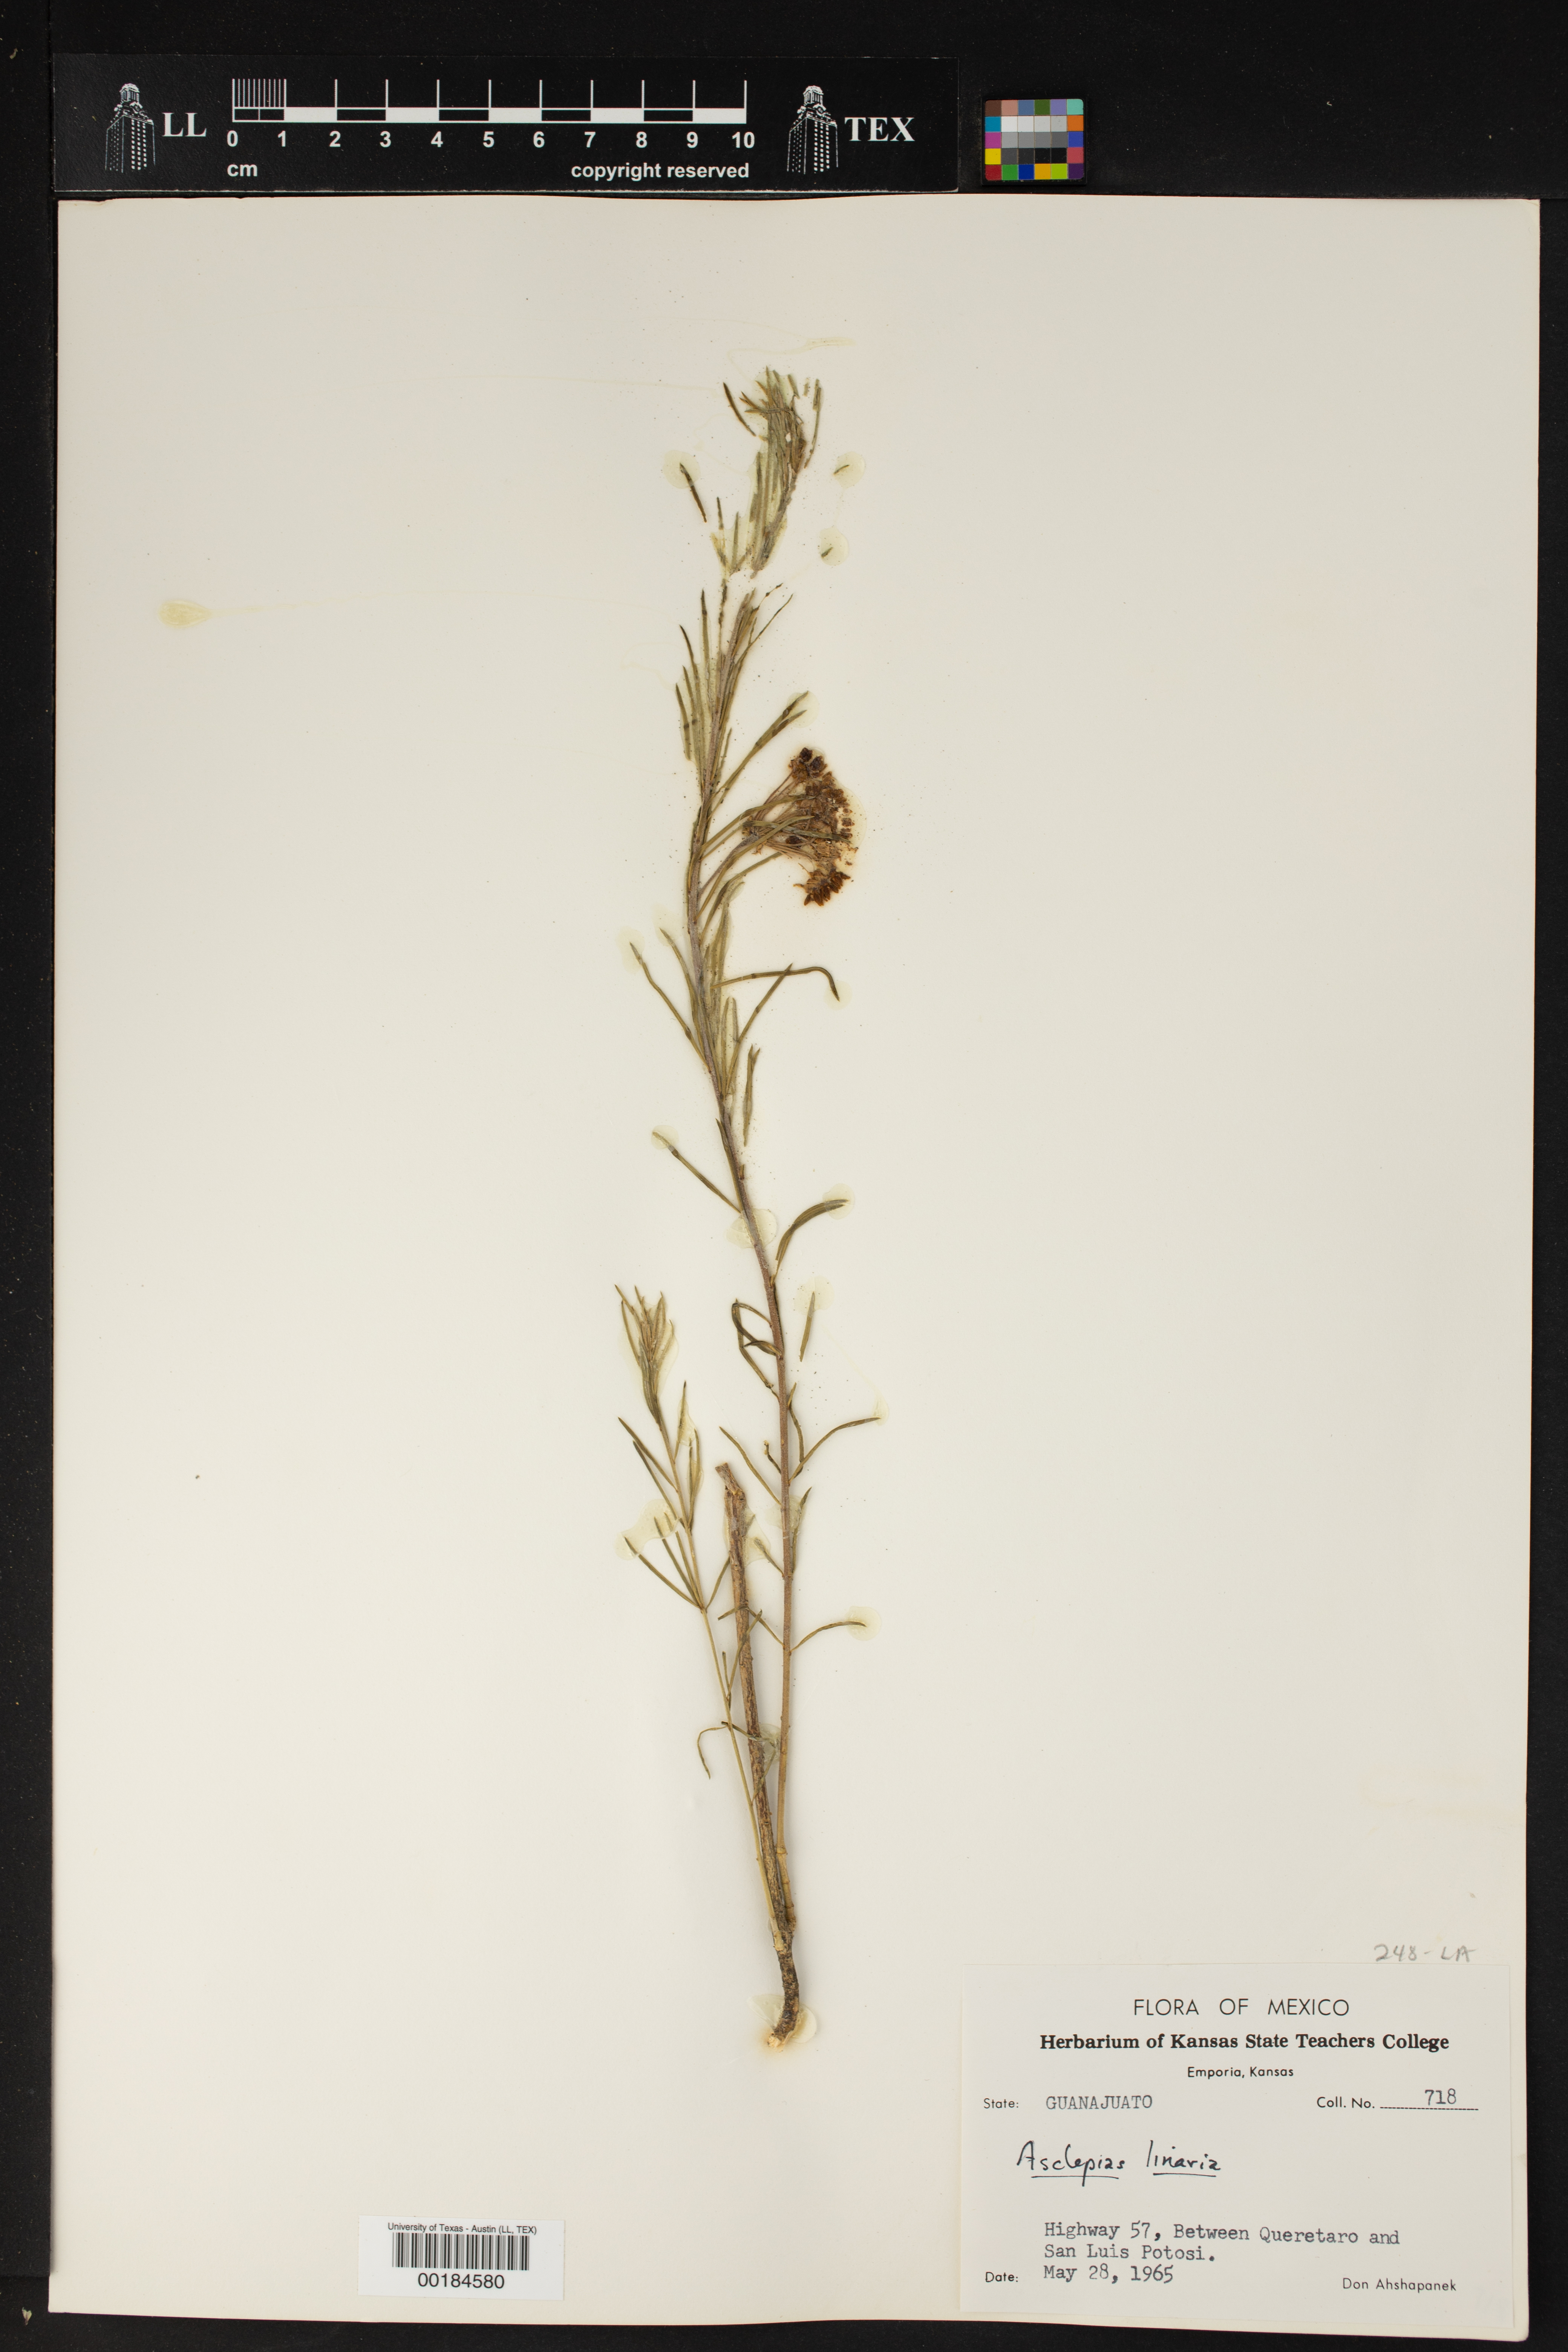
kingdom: Plantae
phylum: Tracheophyta
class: Magnoliopsida
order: Gentianales
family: Apocynaceae
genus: Asclepias
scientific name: Asclepias linaria
